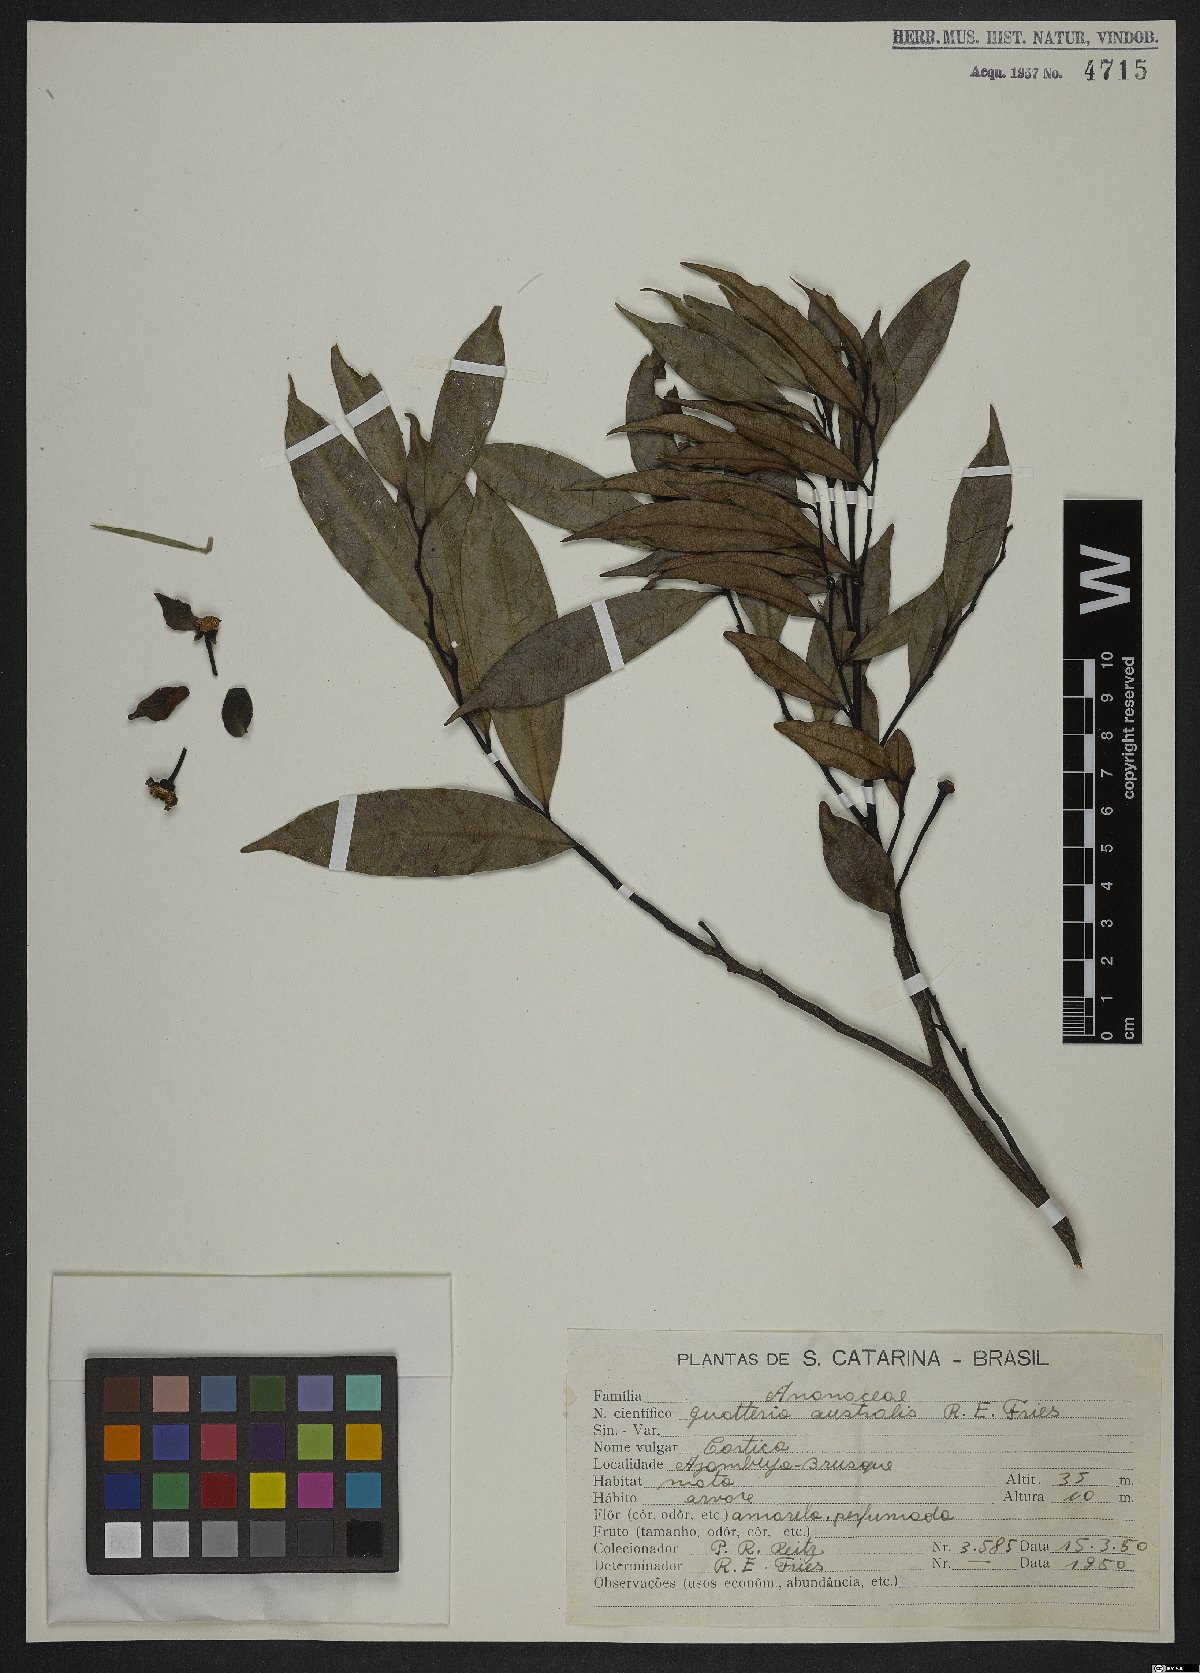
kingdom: Plantae
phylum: Tracheophyta
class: Magnoliopsida
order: Magnoliales
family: Annonaceae
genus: Guatteria
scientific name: Guatteria australis
